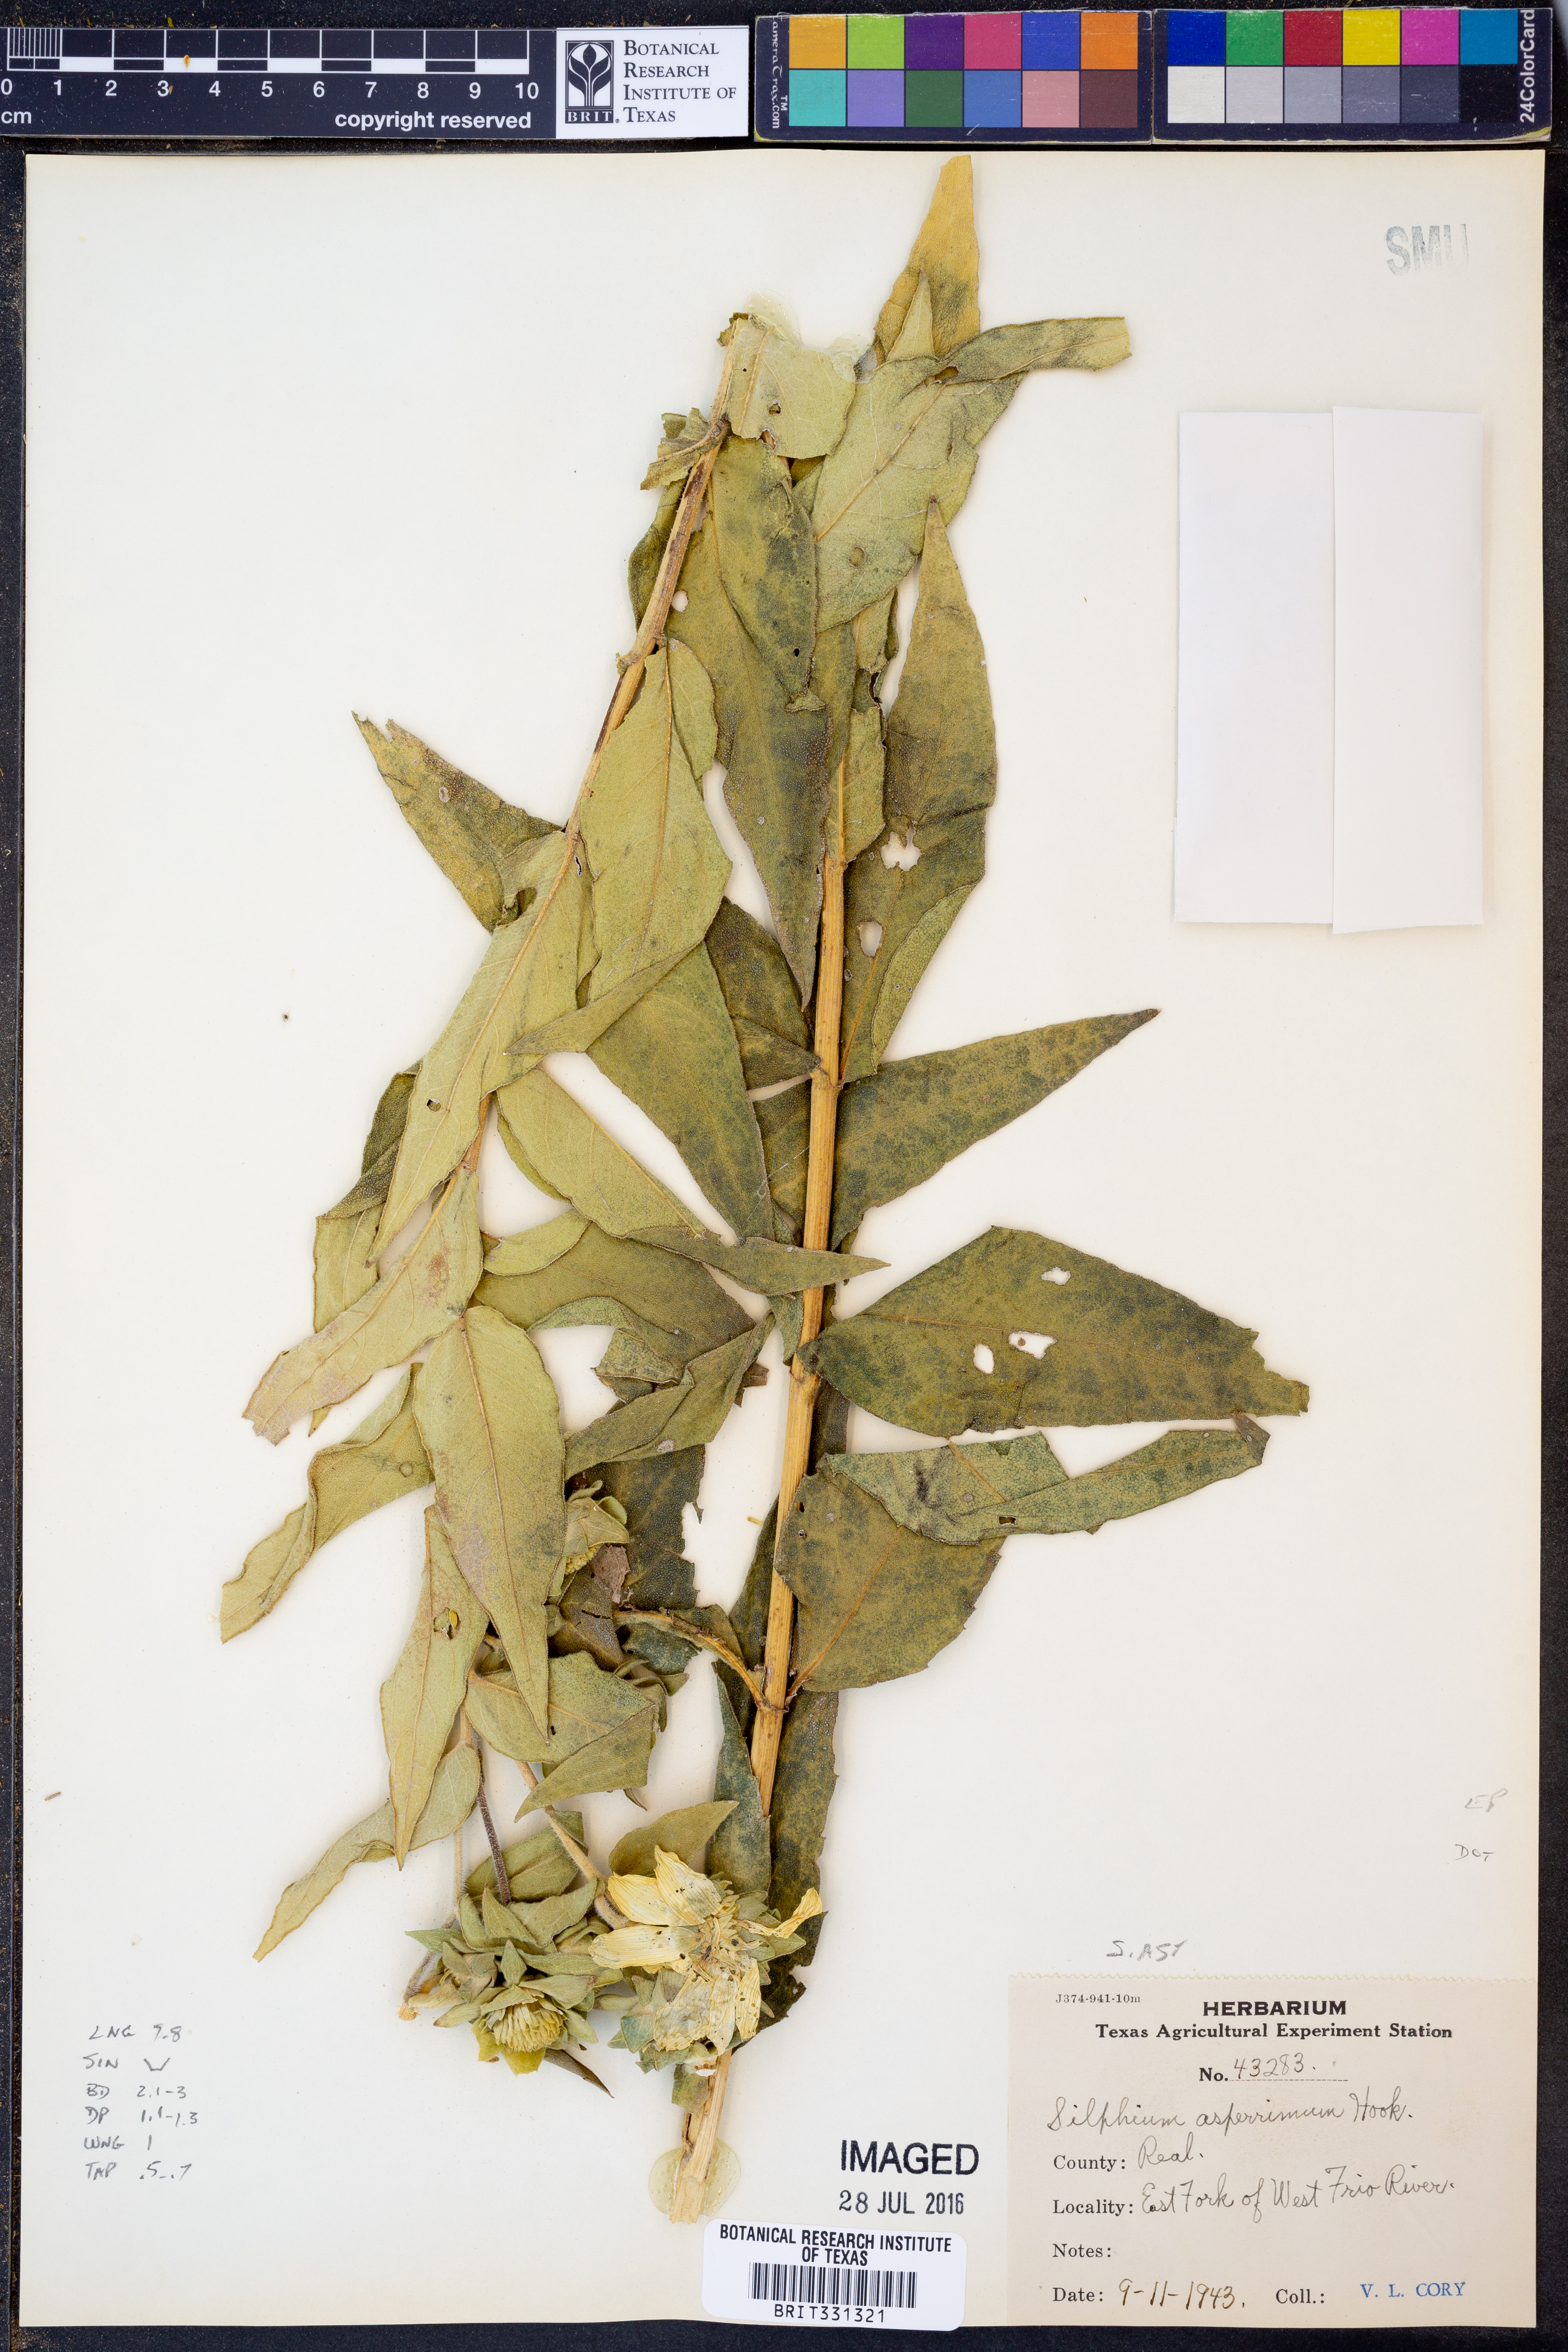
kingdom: Plantae
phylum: Tracheophyta
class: Magnoliopsida
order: Asterales
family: Asteraceae
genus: Silphium
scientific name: Silphium asperrimum
